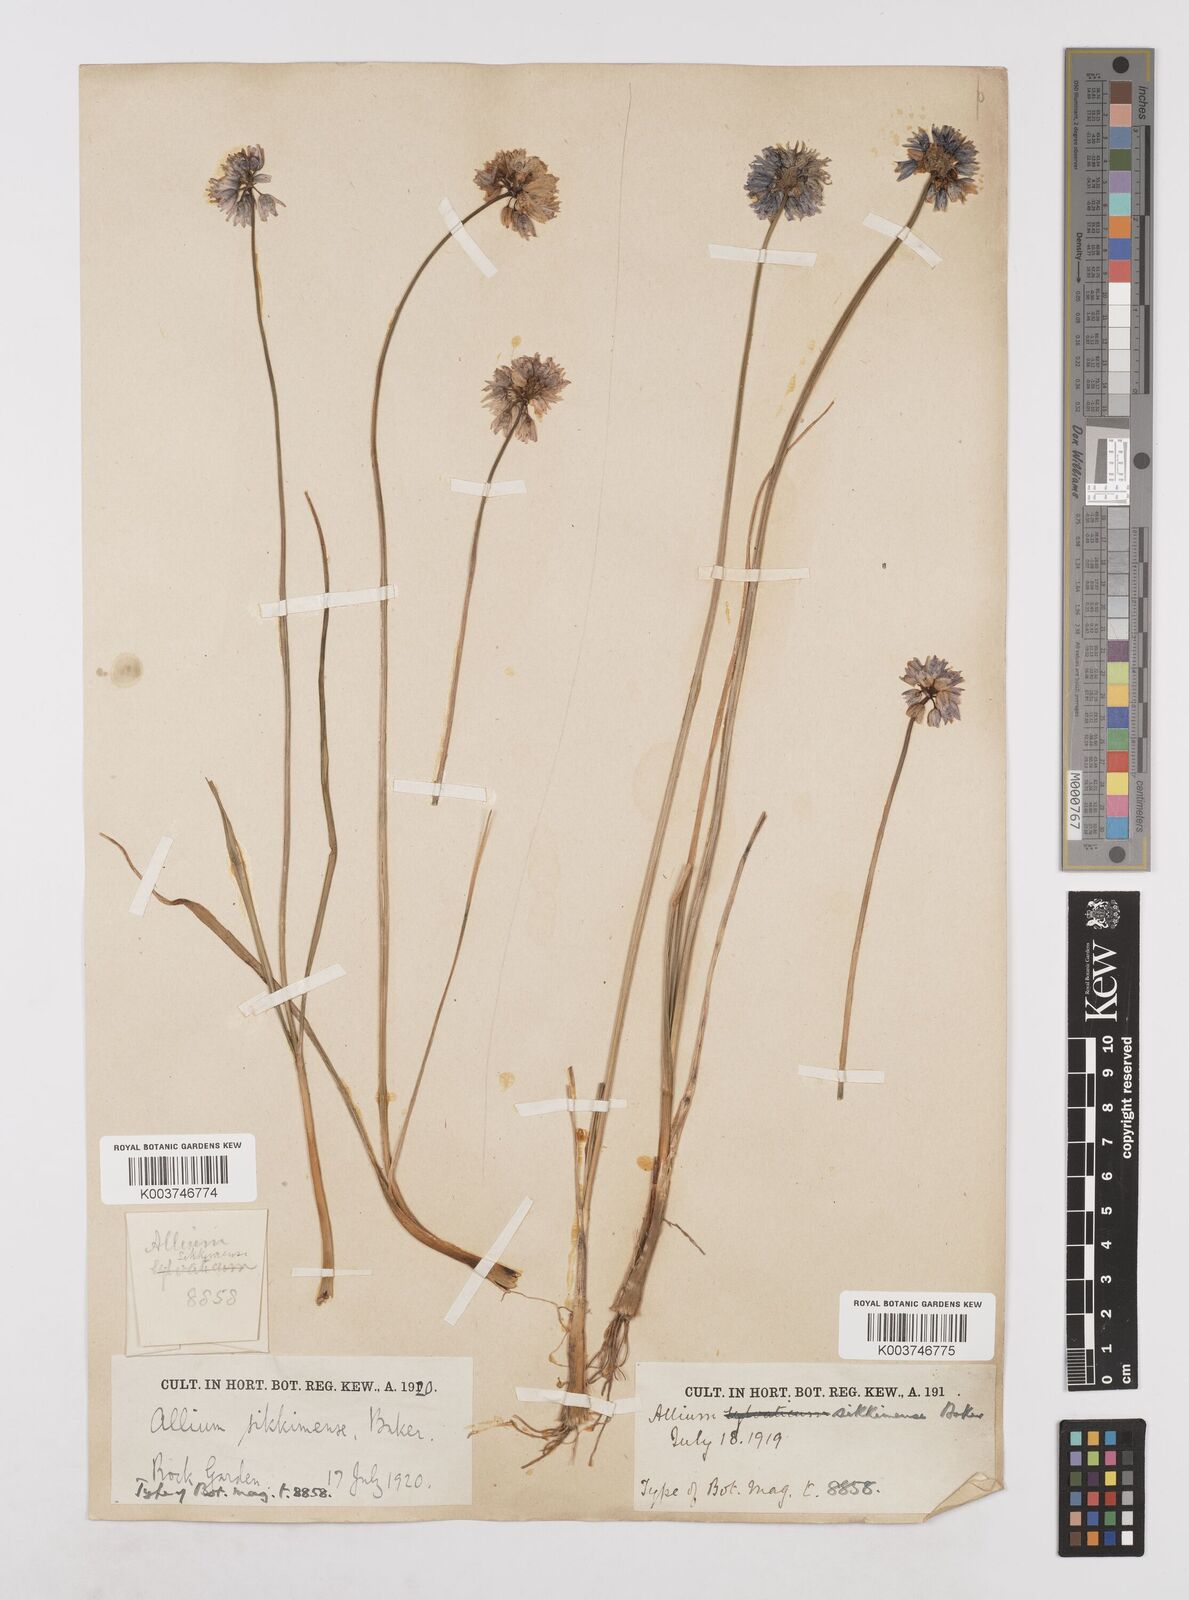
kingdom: Plantae
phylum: Tracheophyta
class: Liliopsida
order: Asparagales
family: Amaryllidaceae
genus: Allium
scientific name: Allium sikkimense
